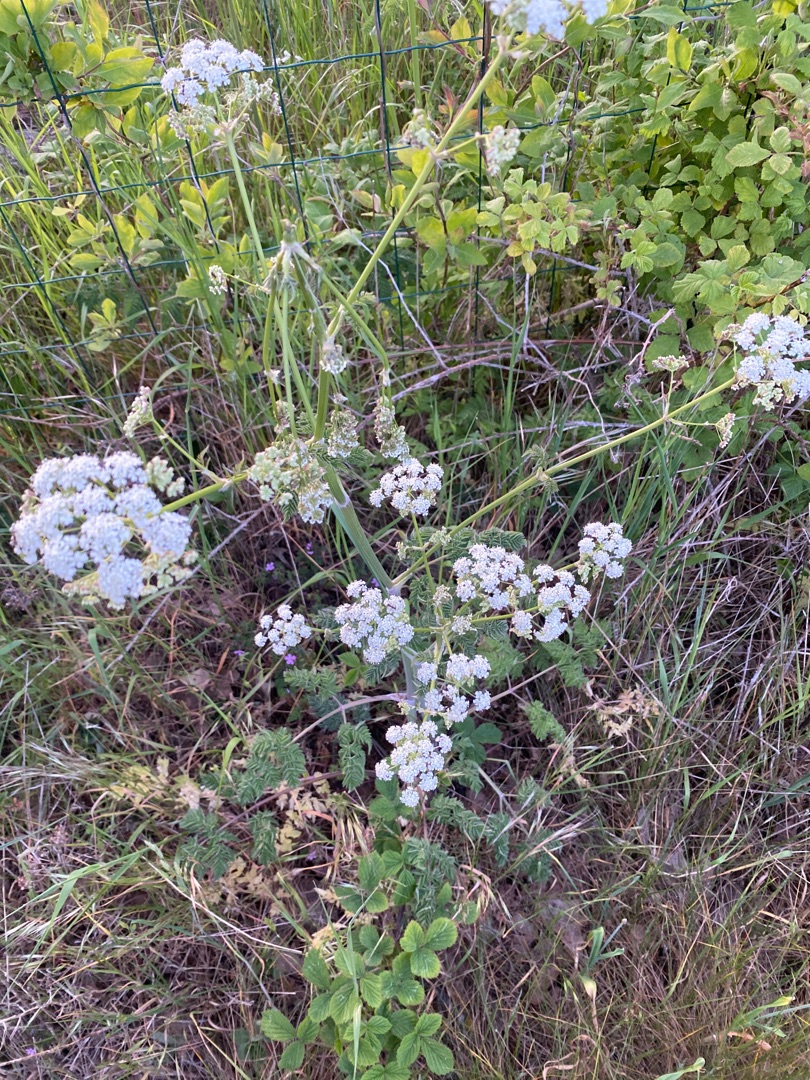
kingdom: Plantae
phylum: Tracheophyta
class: Magnoliopsida
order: Apiales
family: Apiaceae
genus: Anthriscus
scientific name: Anthriscus sylvestris
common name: Vild kørvel
